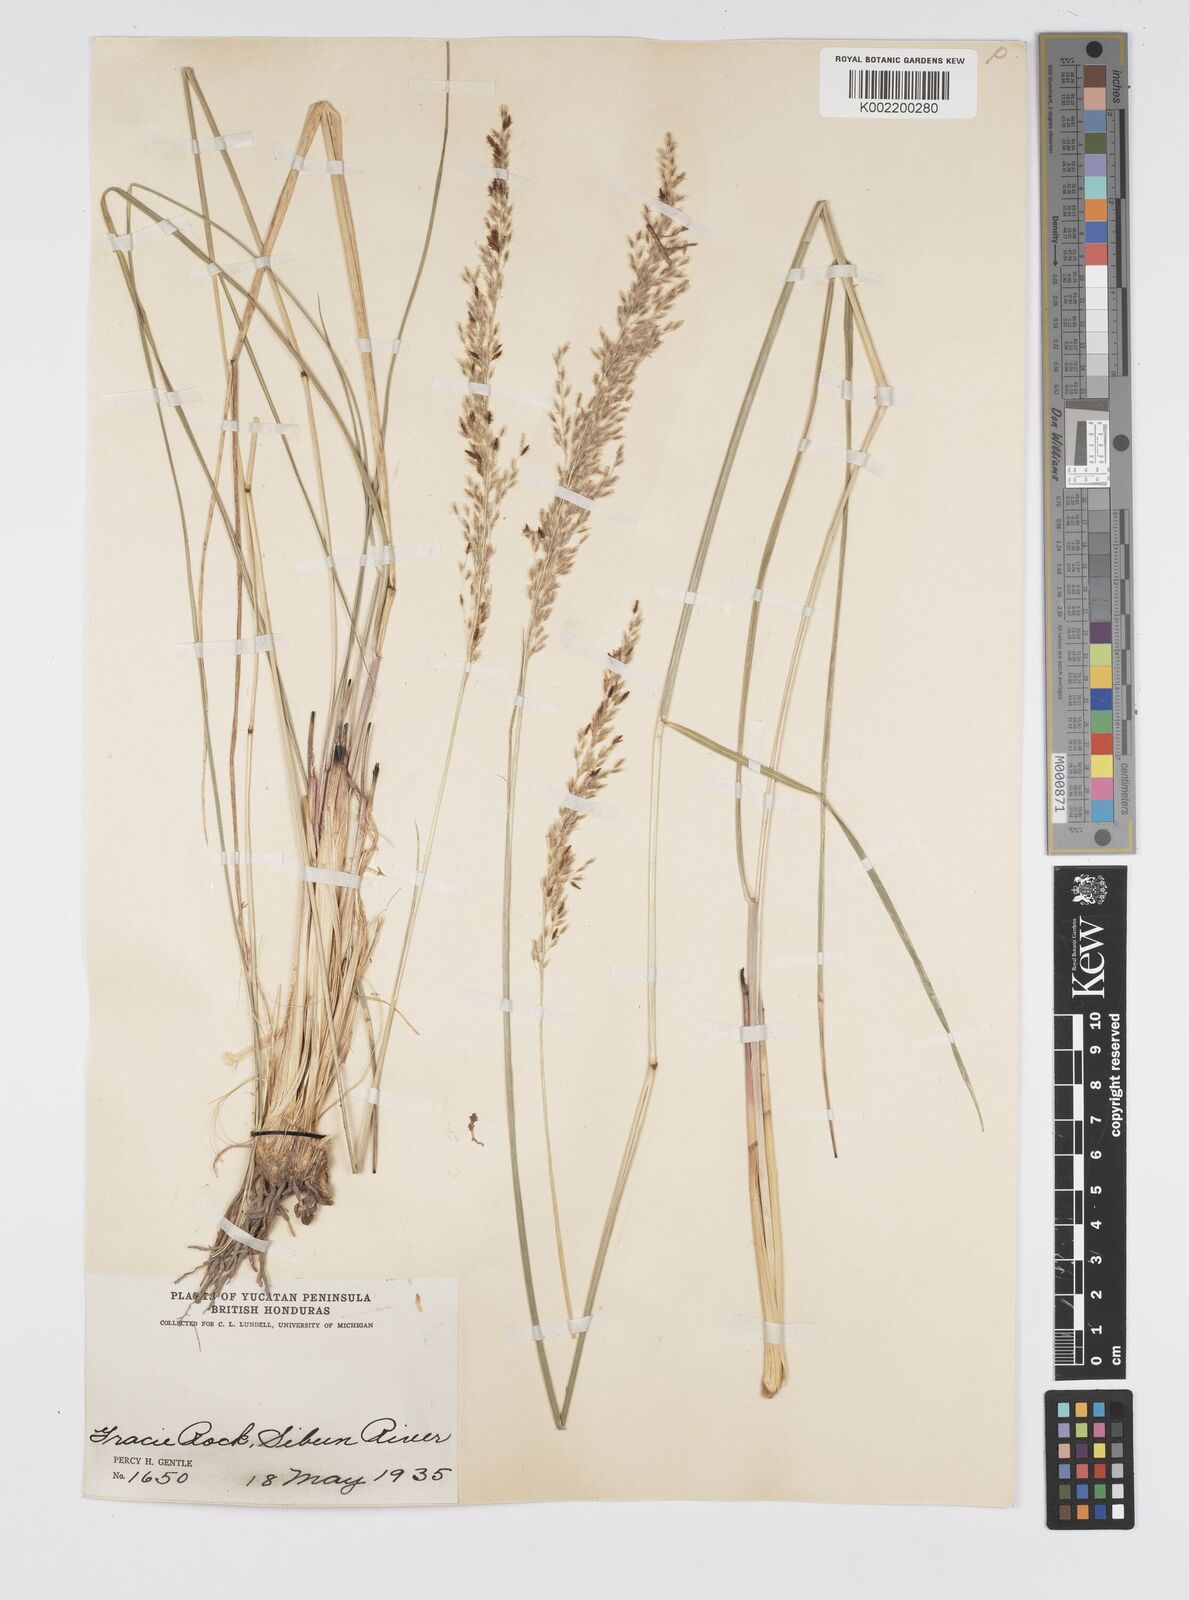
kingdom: Plantae
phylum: Tracheophyta
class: Liliopsida
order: Poales
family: Poaceae
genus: Anthenantia
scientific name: Anthenantia lanata
